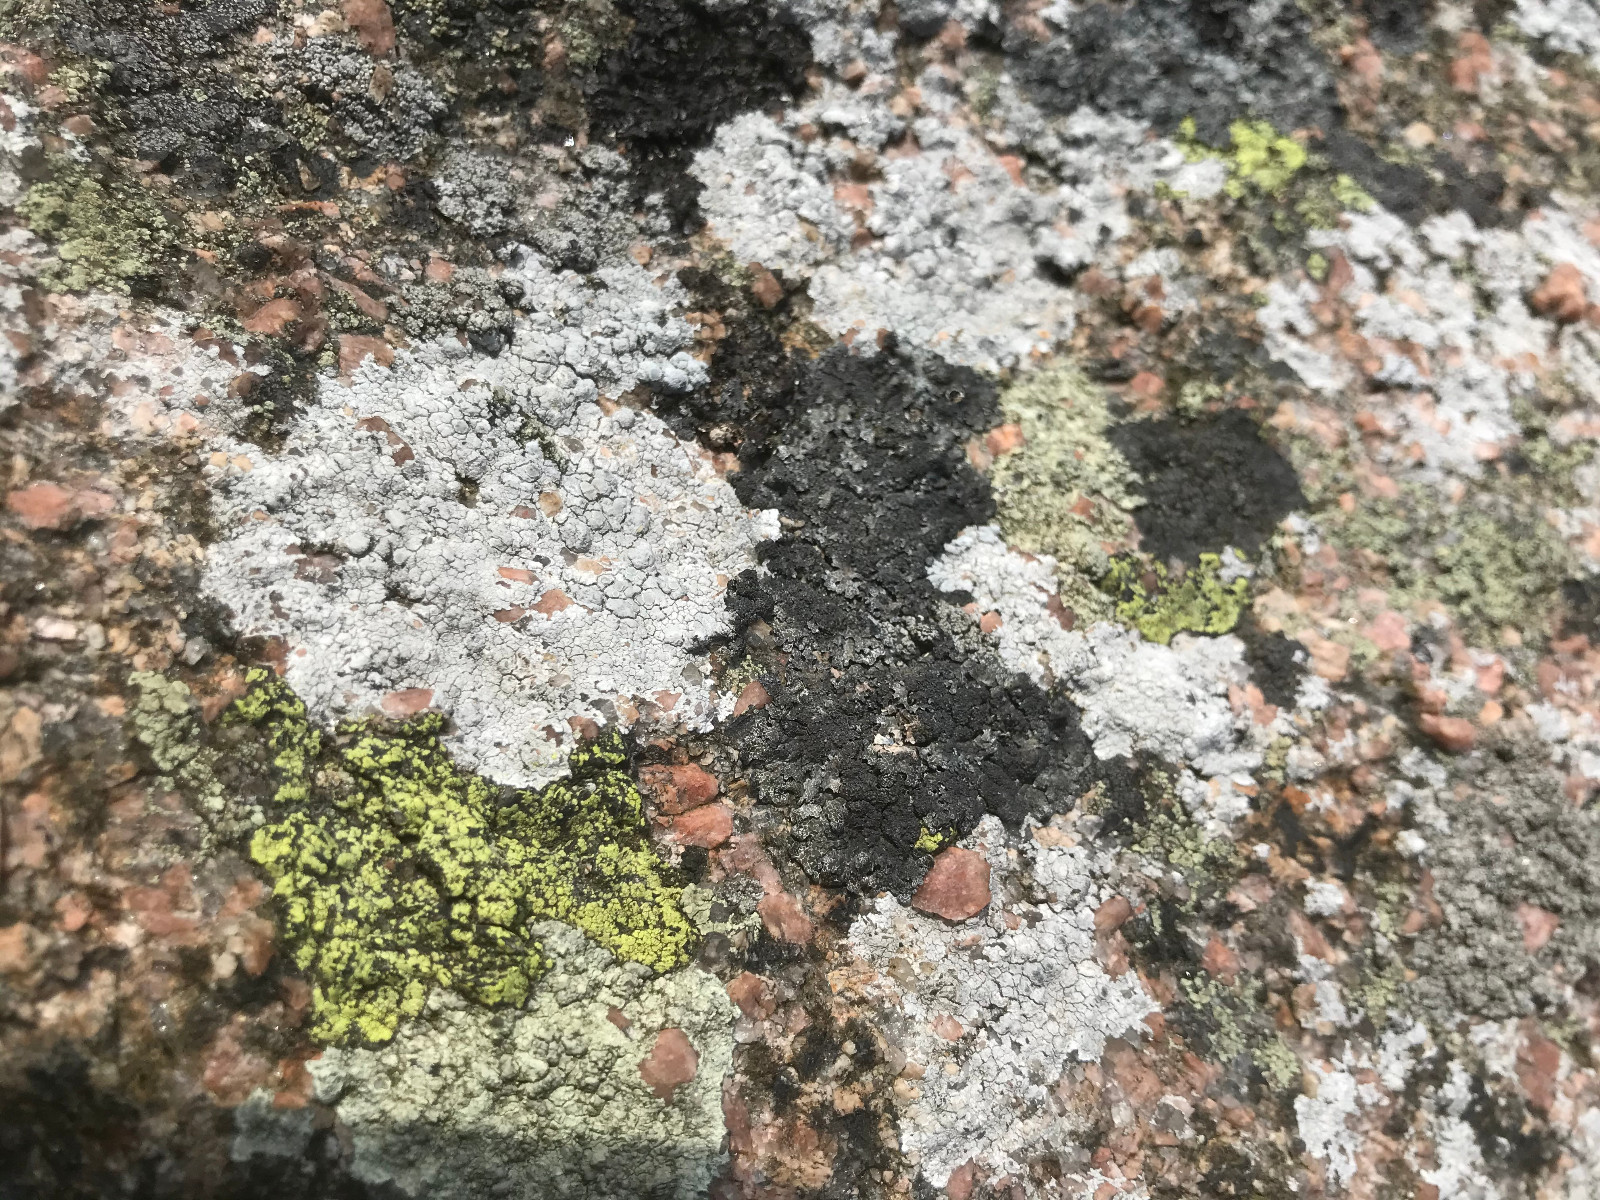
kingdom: Fungi
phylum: Ascomycota
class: Lecanoromycetes
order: Rhizocarpales
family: Rhizocarpaceae
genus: Rhizocarpon
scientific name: Rhizocarpon geographicum
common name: gulgrøn landkortlav
